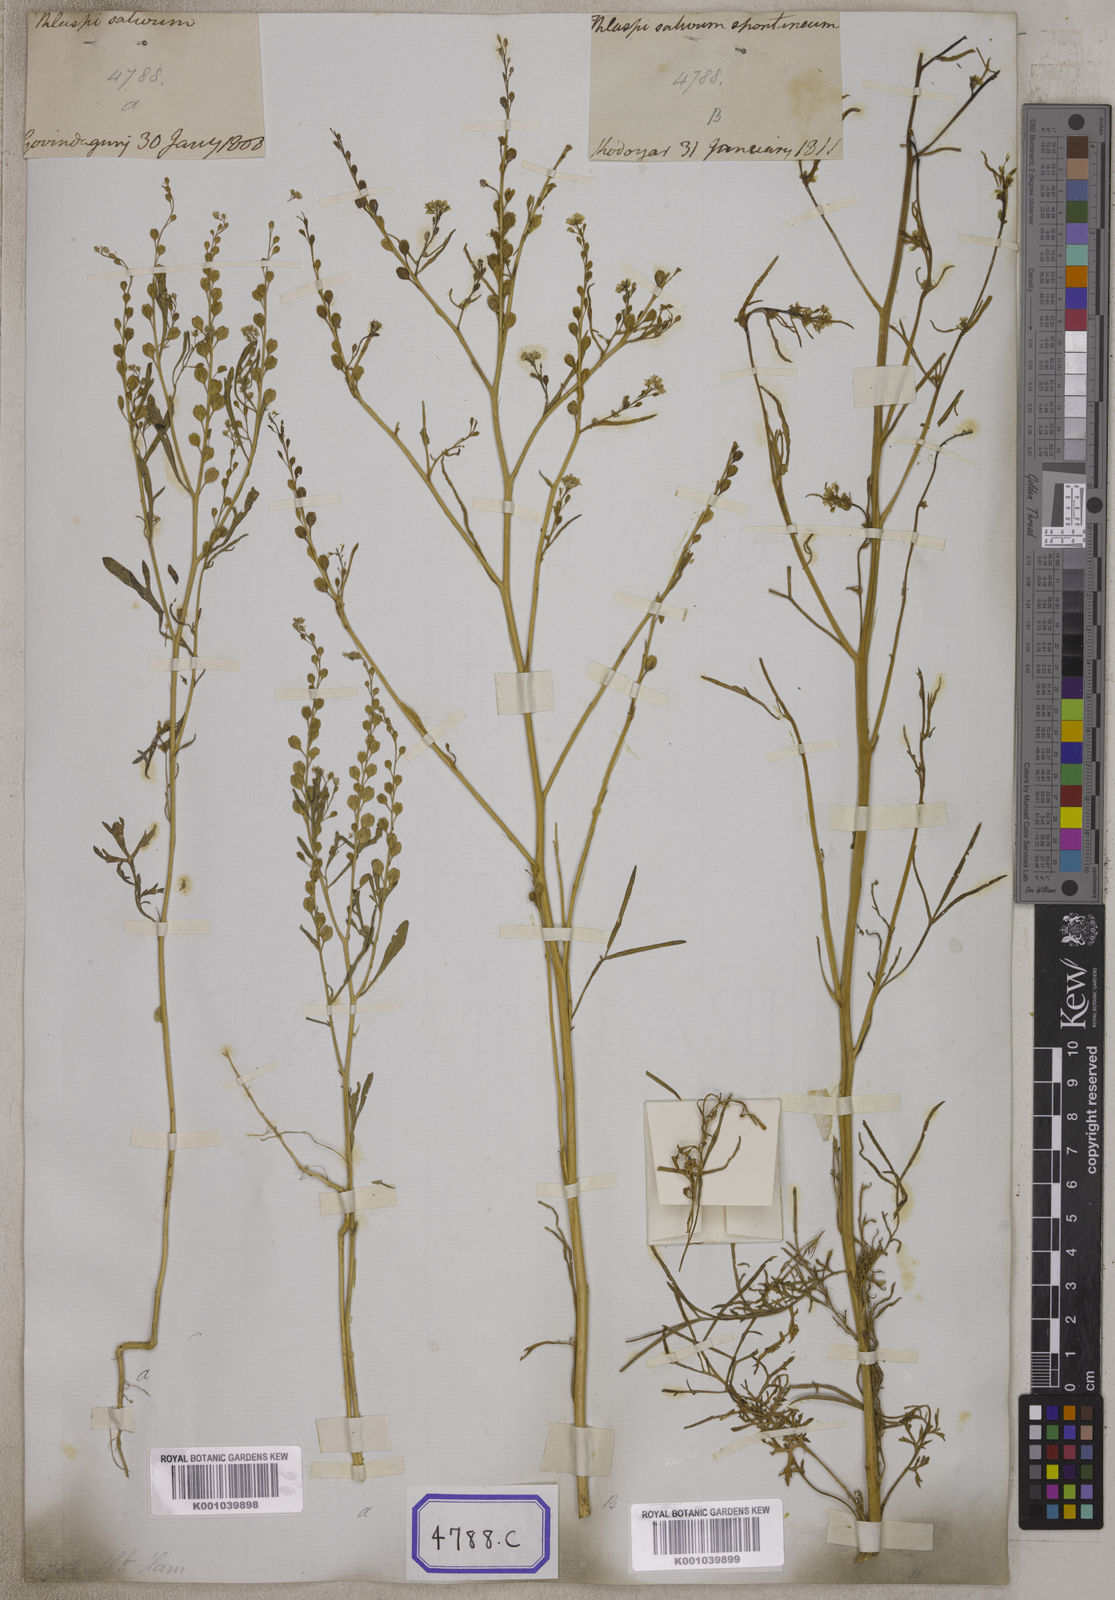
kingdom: Plantae
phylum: Tracheophyta
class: Magnoliopsida
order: Brassicales
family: Brassicaceae
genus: Lepidium
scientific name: Lepidium sativum
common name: Garden cress
